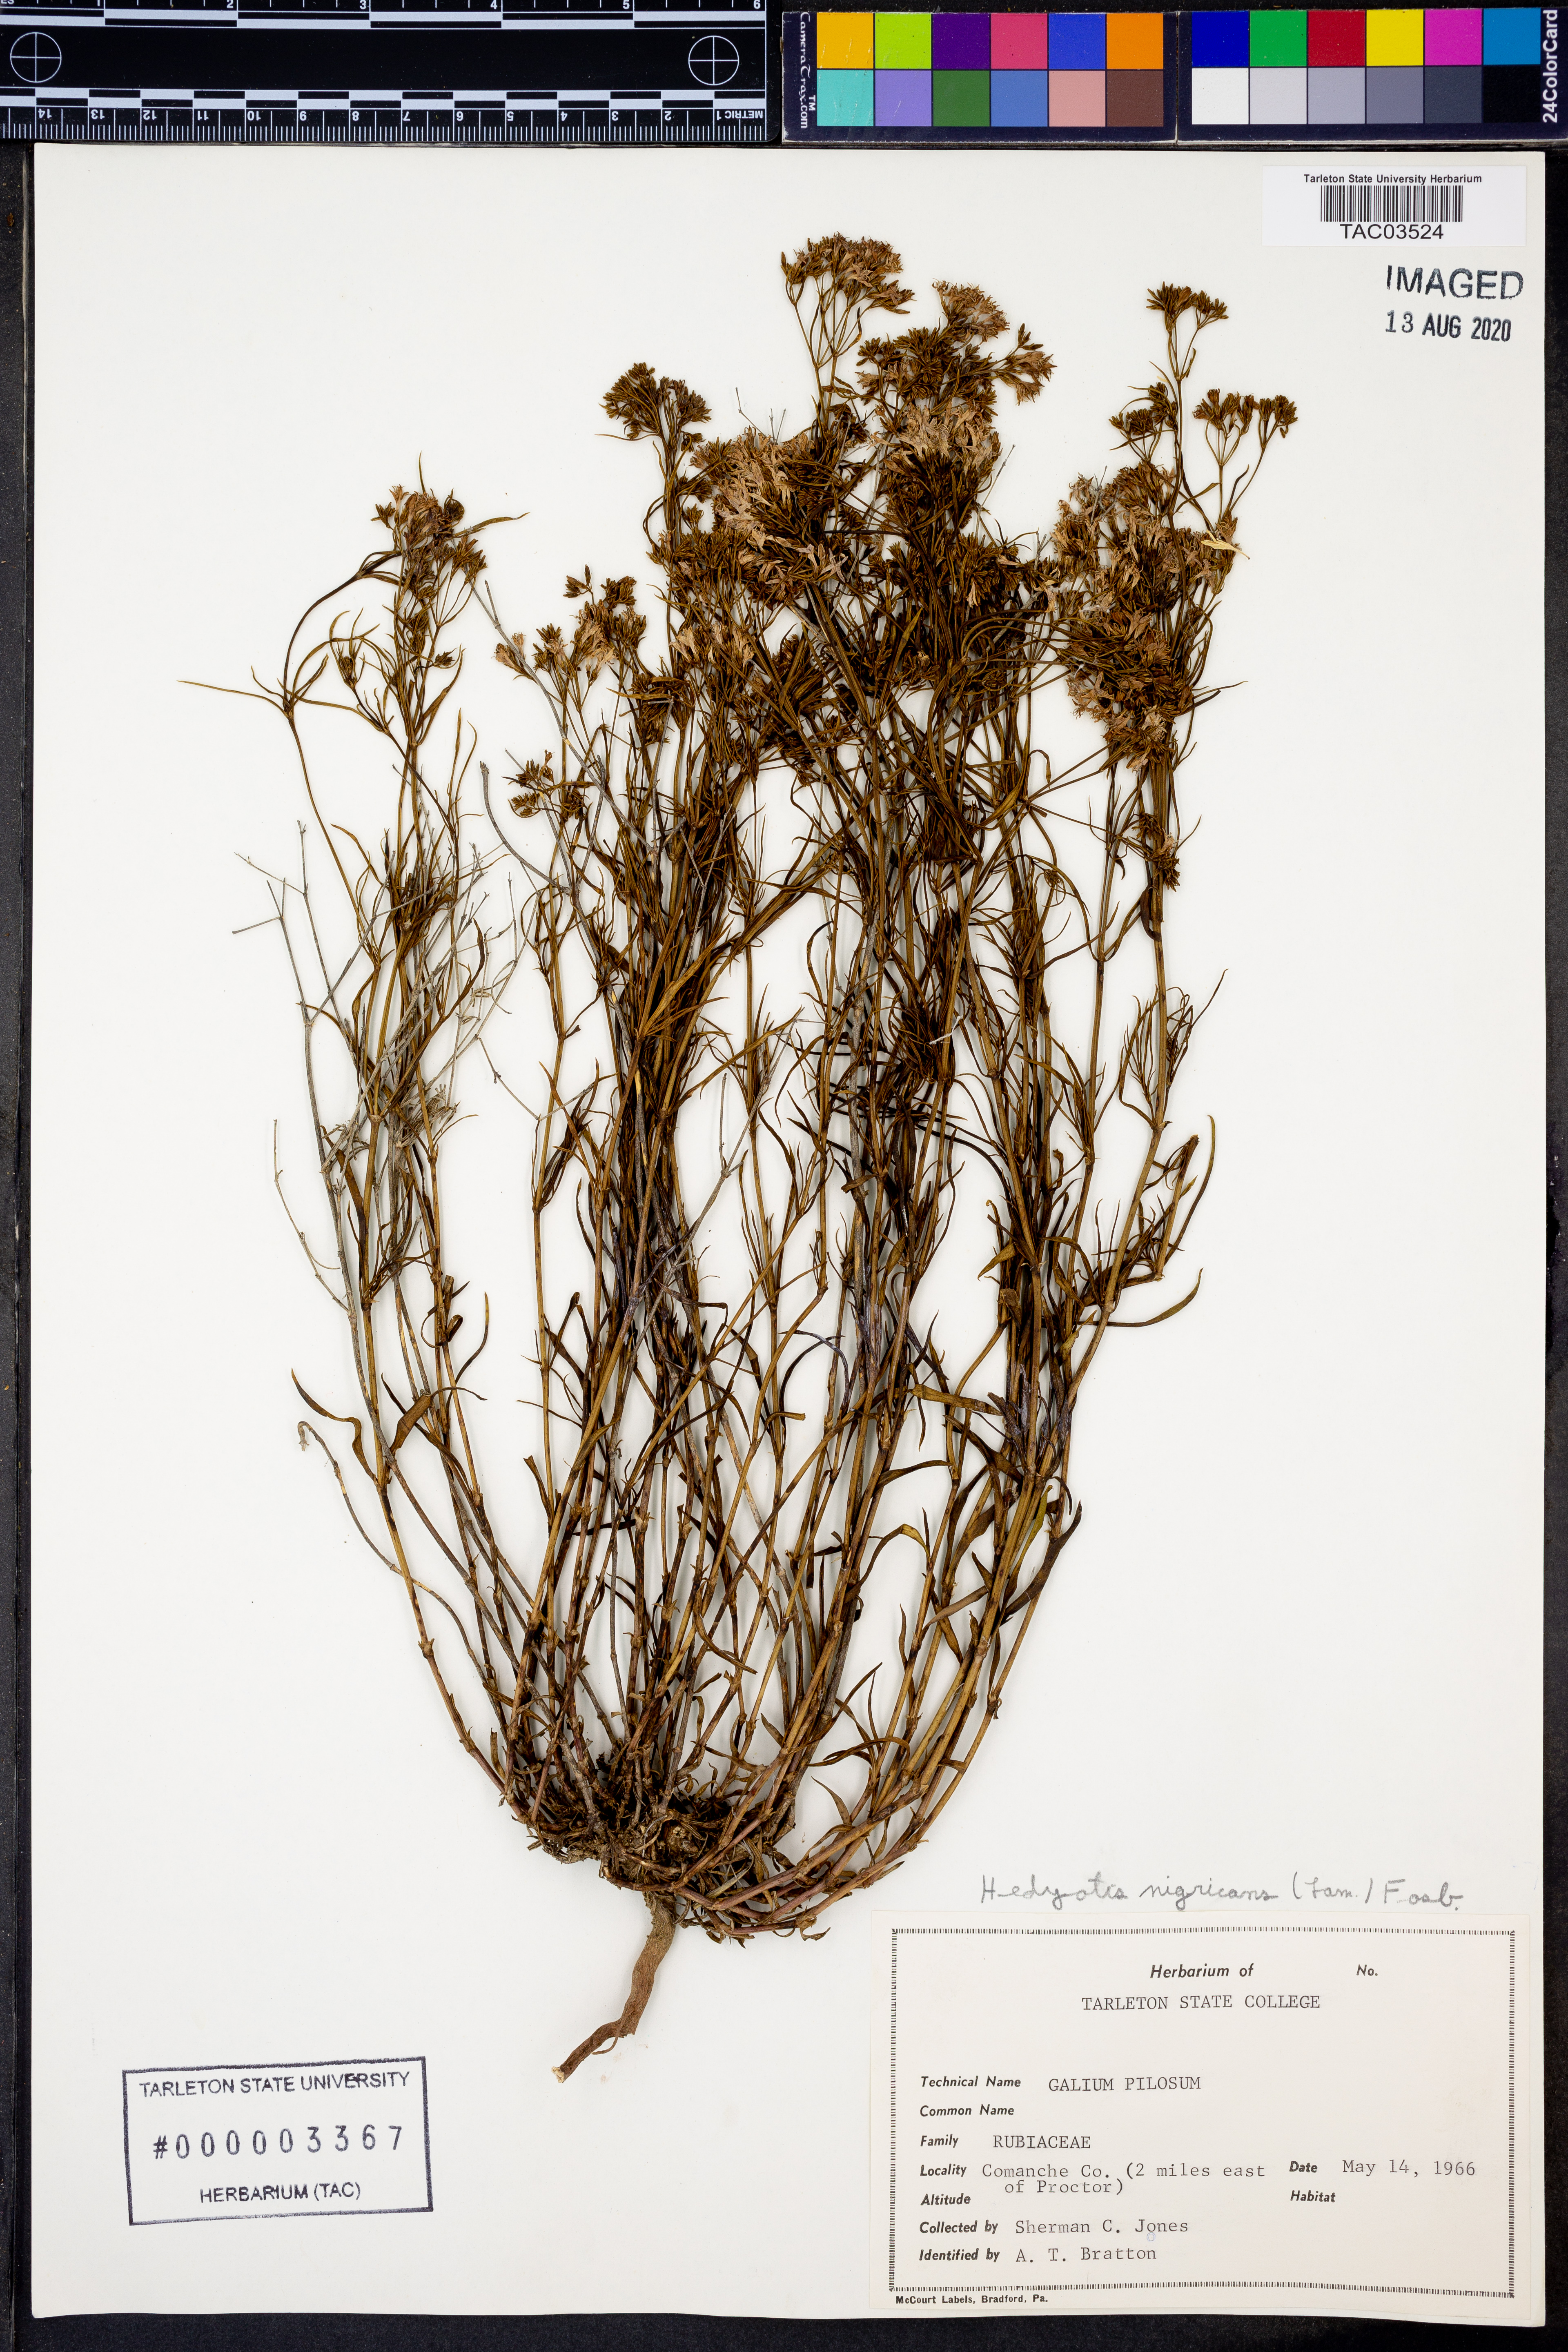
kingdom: Plantae
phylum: Tracheophyta
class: Magnoliopsida
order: Gentianales
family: Rubiaceae
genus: Stenaria
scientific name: Stenaria nigricans
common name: Diamondflowers
